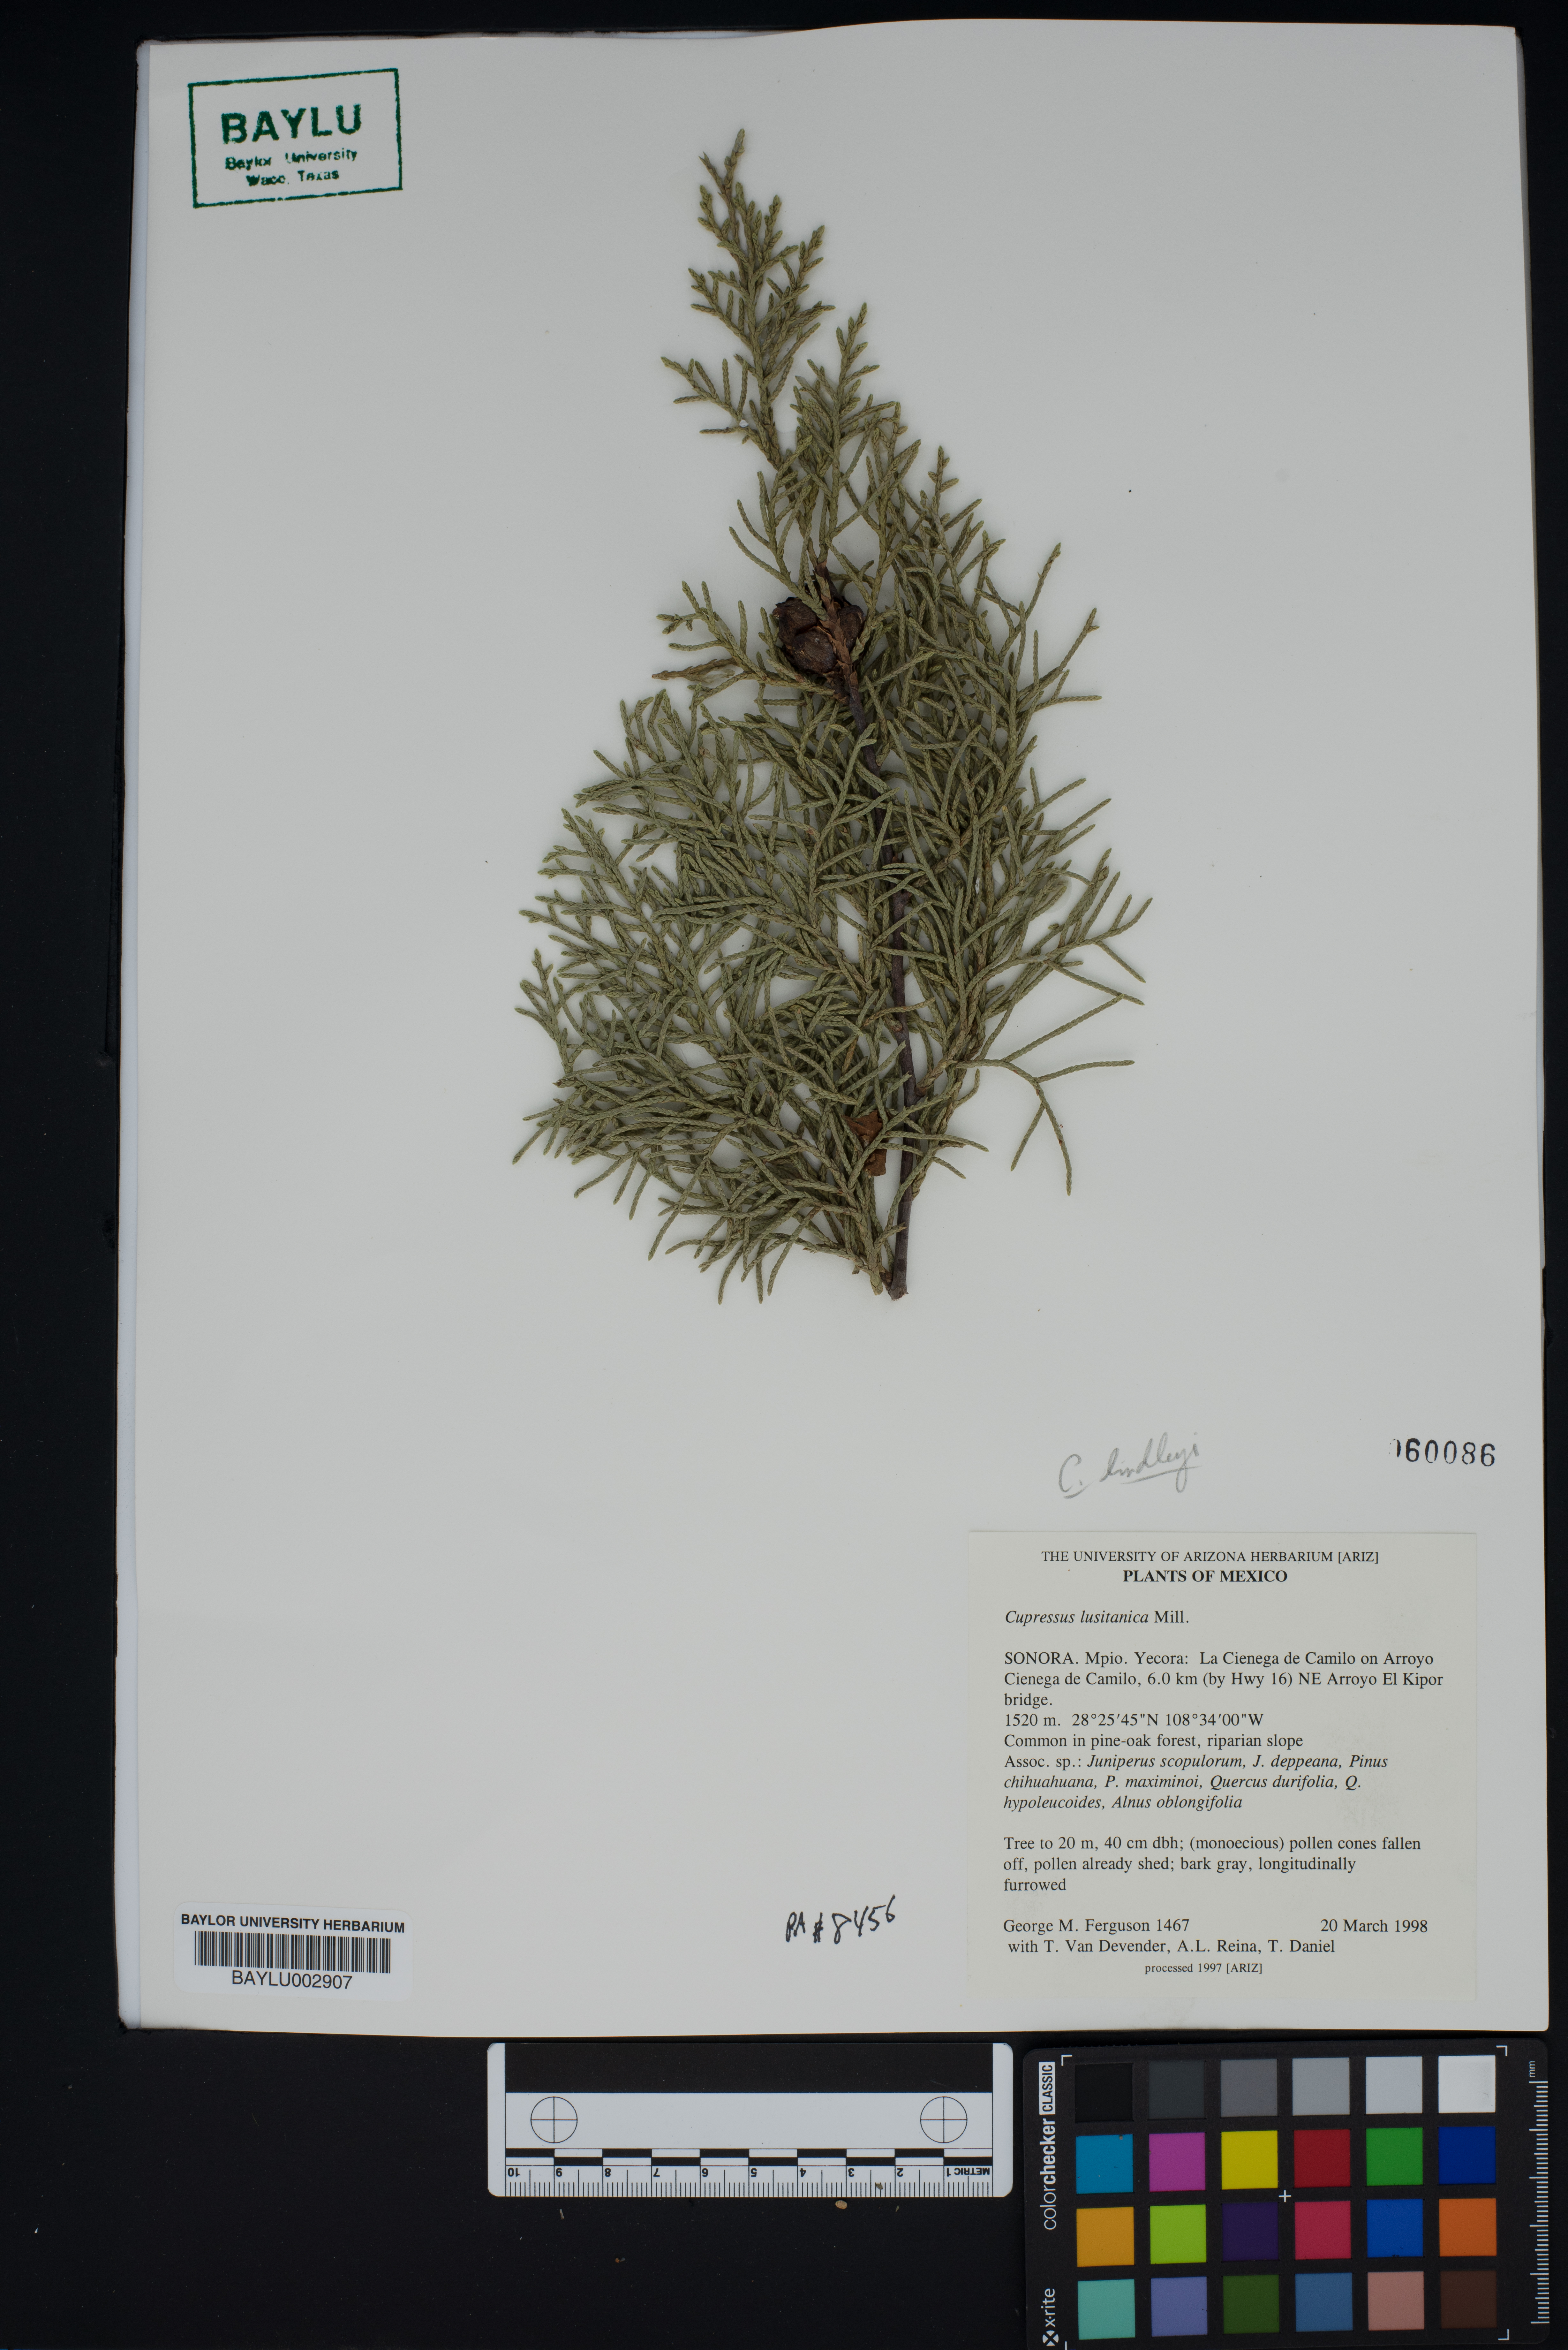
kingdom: Plantae
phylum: Tracheophyta
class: Pinopsida
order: Pinales
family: Cupressaceae
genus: Cupressus
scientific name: Cupressus lusitanica
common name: Mexican cypress
